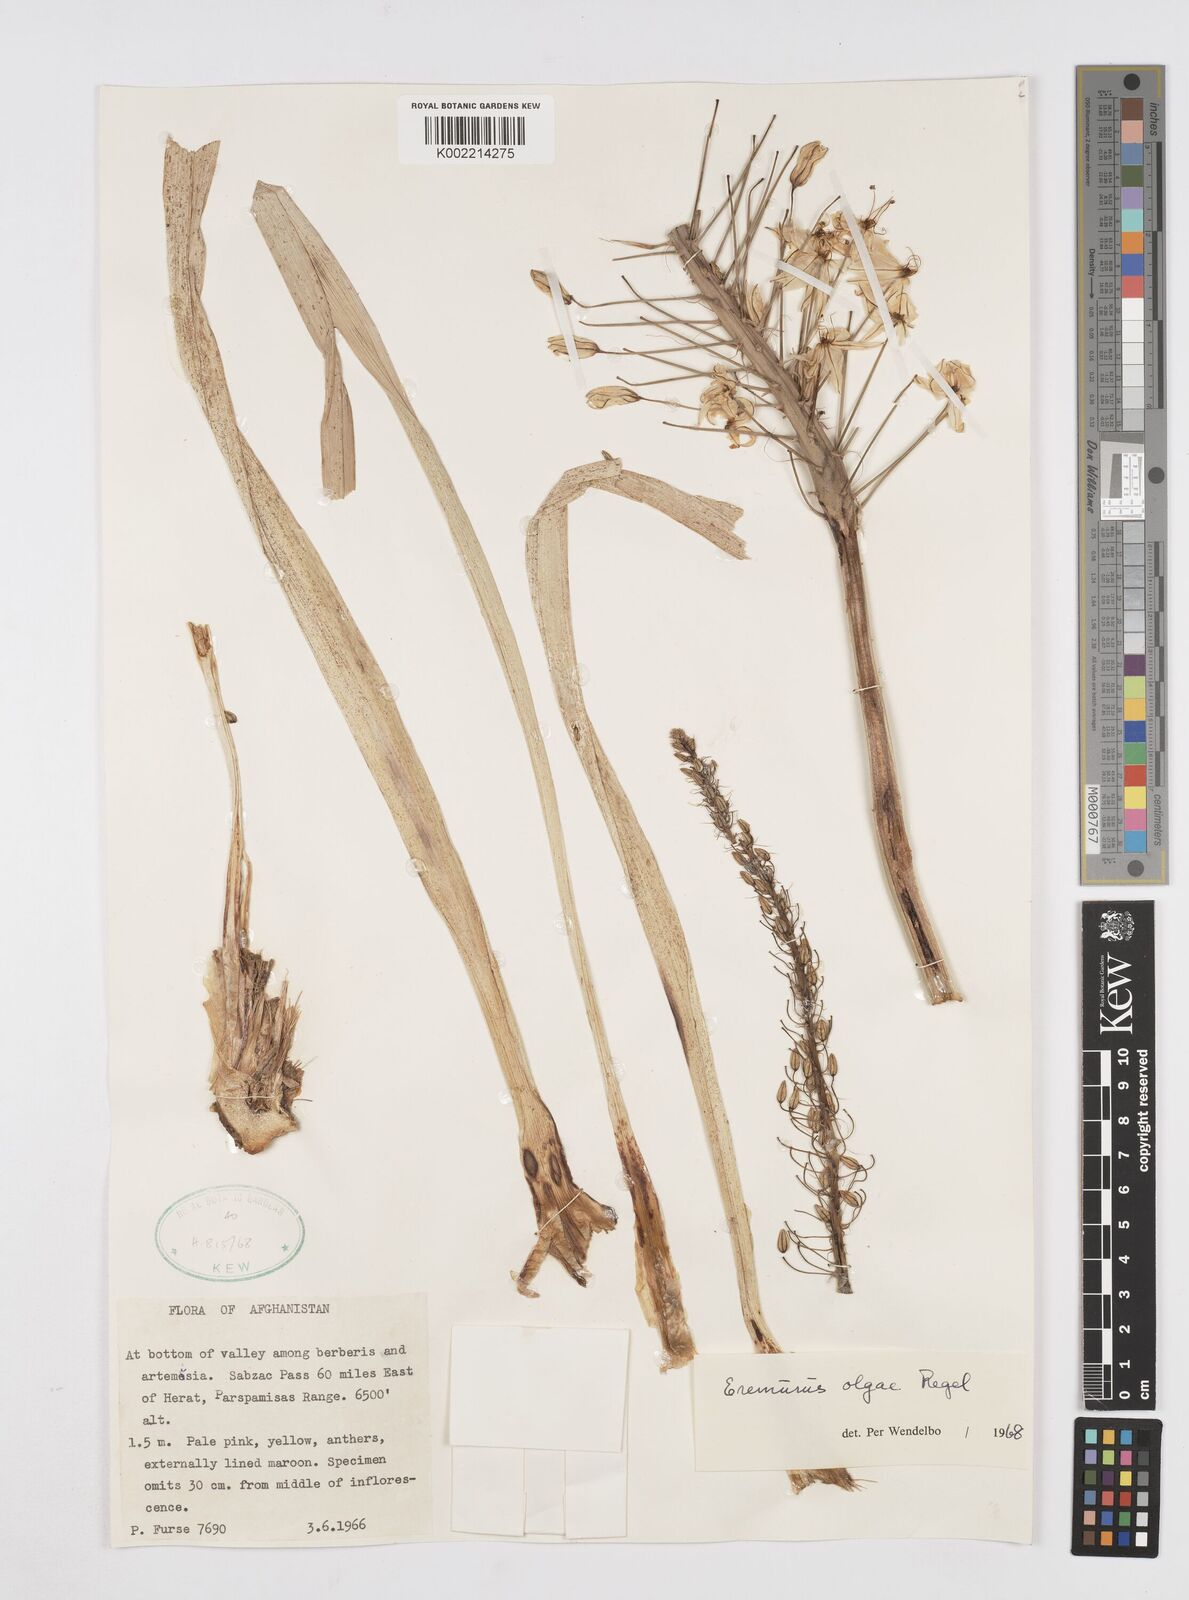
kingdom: Plantae
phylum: Tracheophyta
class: Liliopsida
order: Asparagales
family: Asphodelaceae
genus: Eremurus
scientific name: Eremurus olgae
